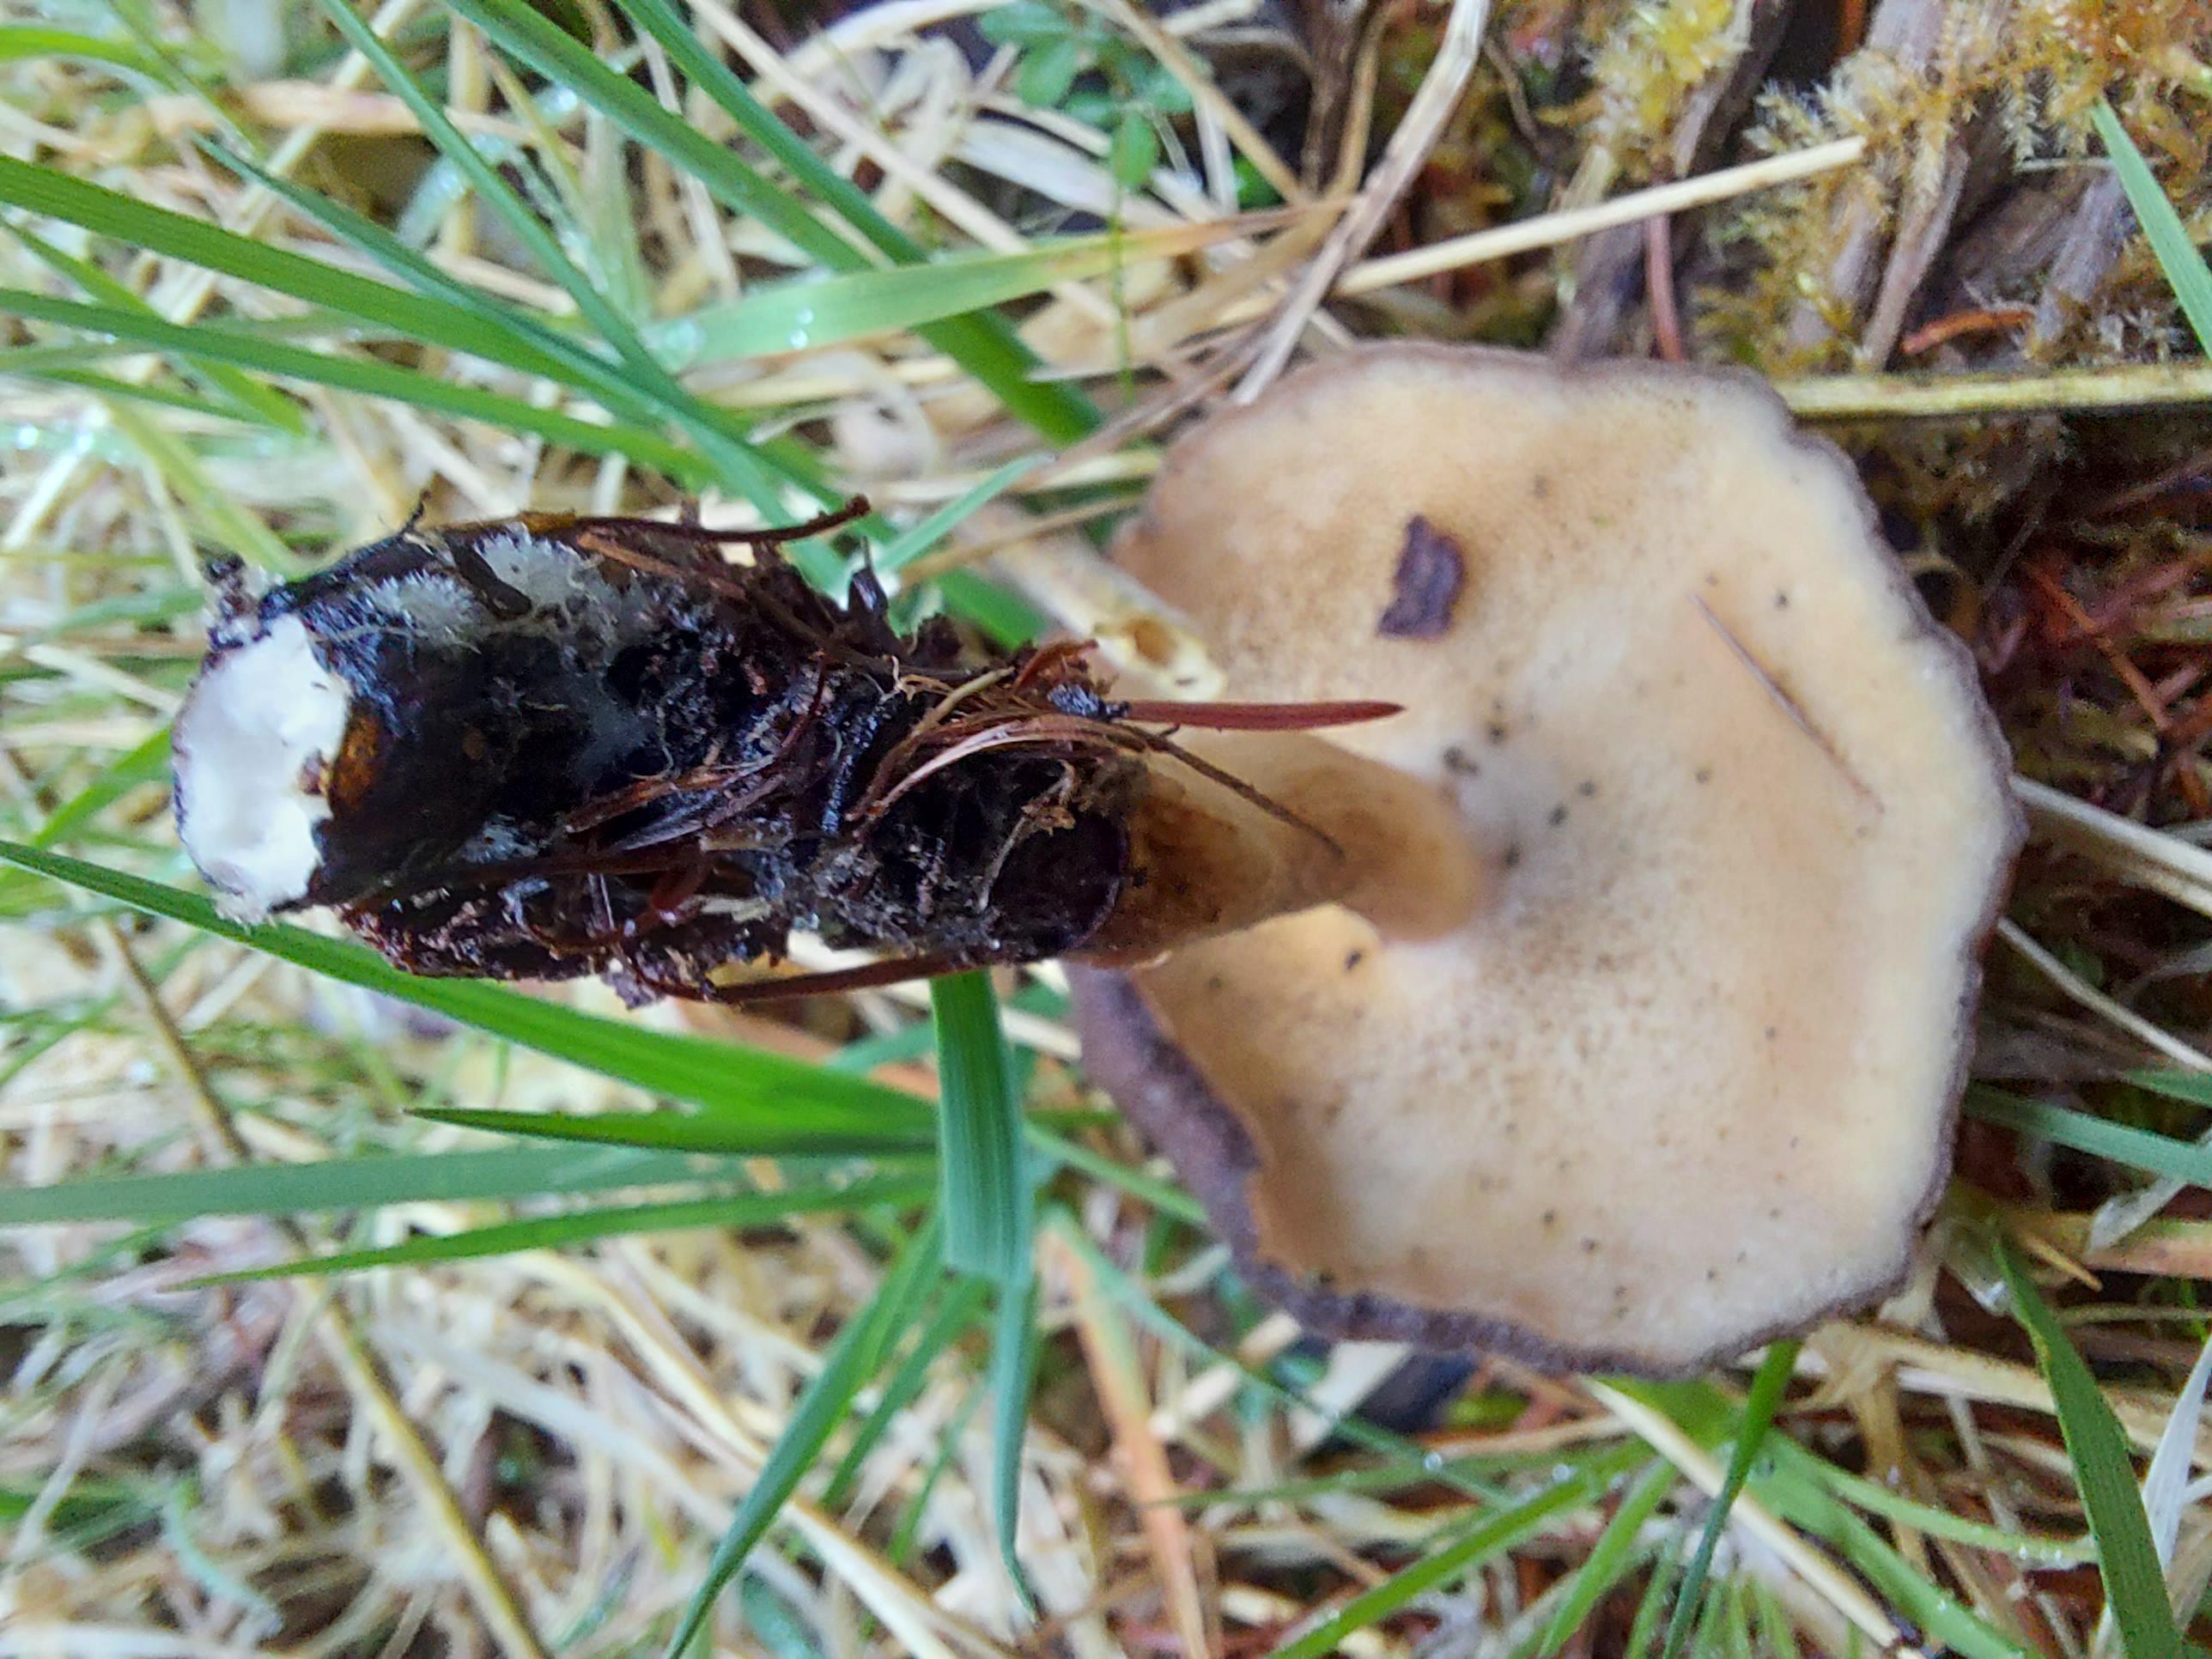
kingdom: Fungi
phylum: Basidiomycota
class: Agaricomycetes
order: Polyporales
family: Polyporaceae
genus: Lentinus
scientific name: Lentinus brumalis
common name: vinter-stilkporesvamp
